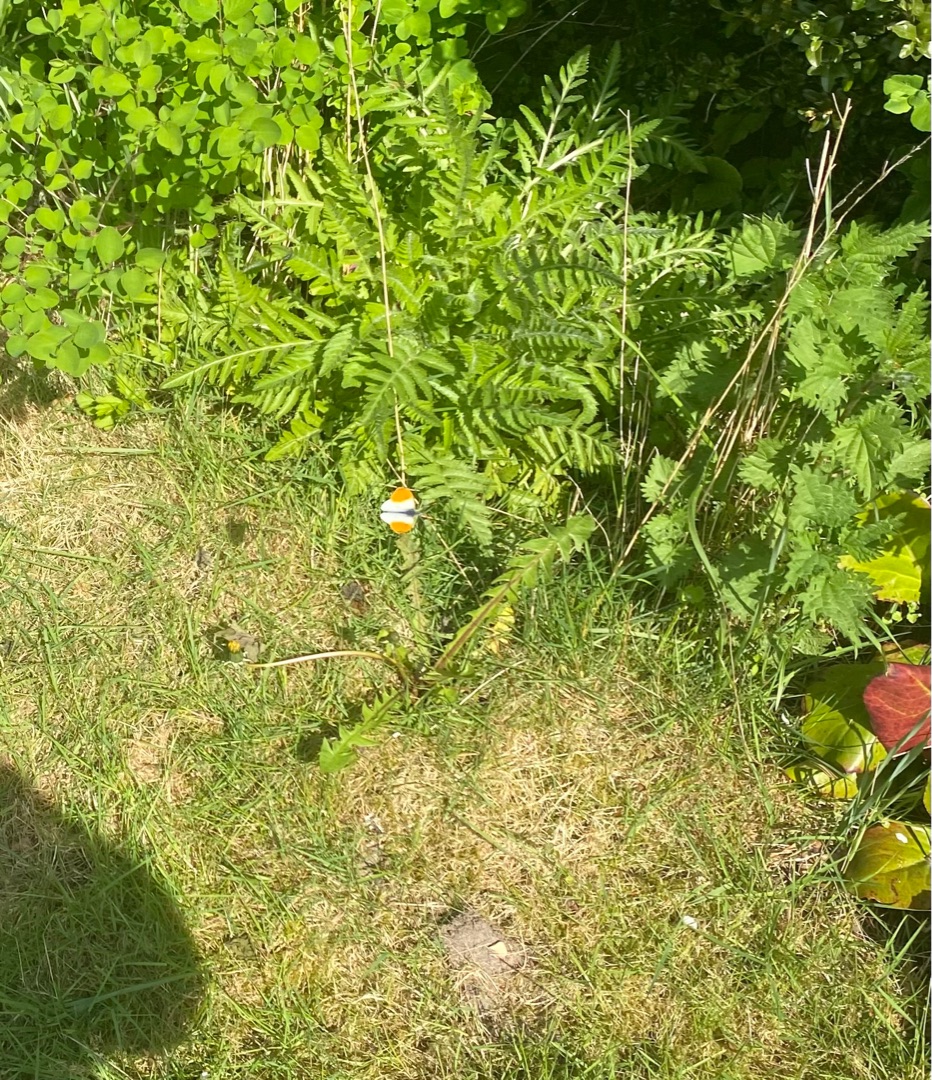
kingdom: Animalia
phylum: Arthropoda
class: Insecta
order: Lepidoptera
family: Pieridae
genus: Anthocharis
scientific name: Anthocharis cardamines
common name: Aurora
